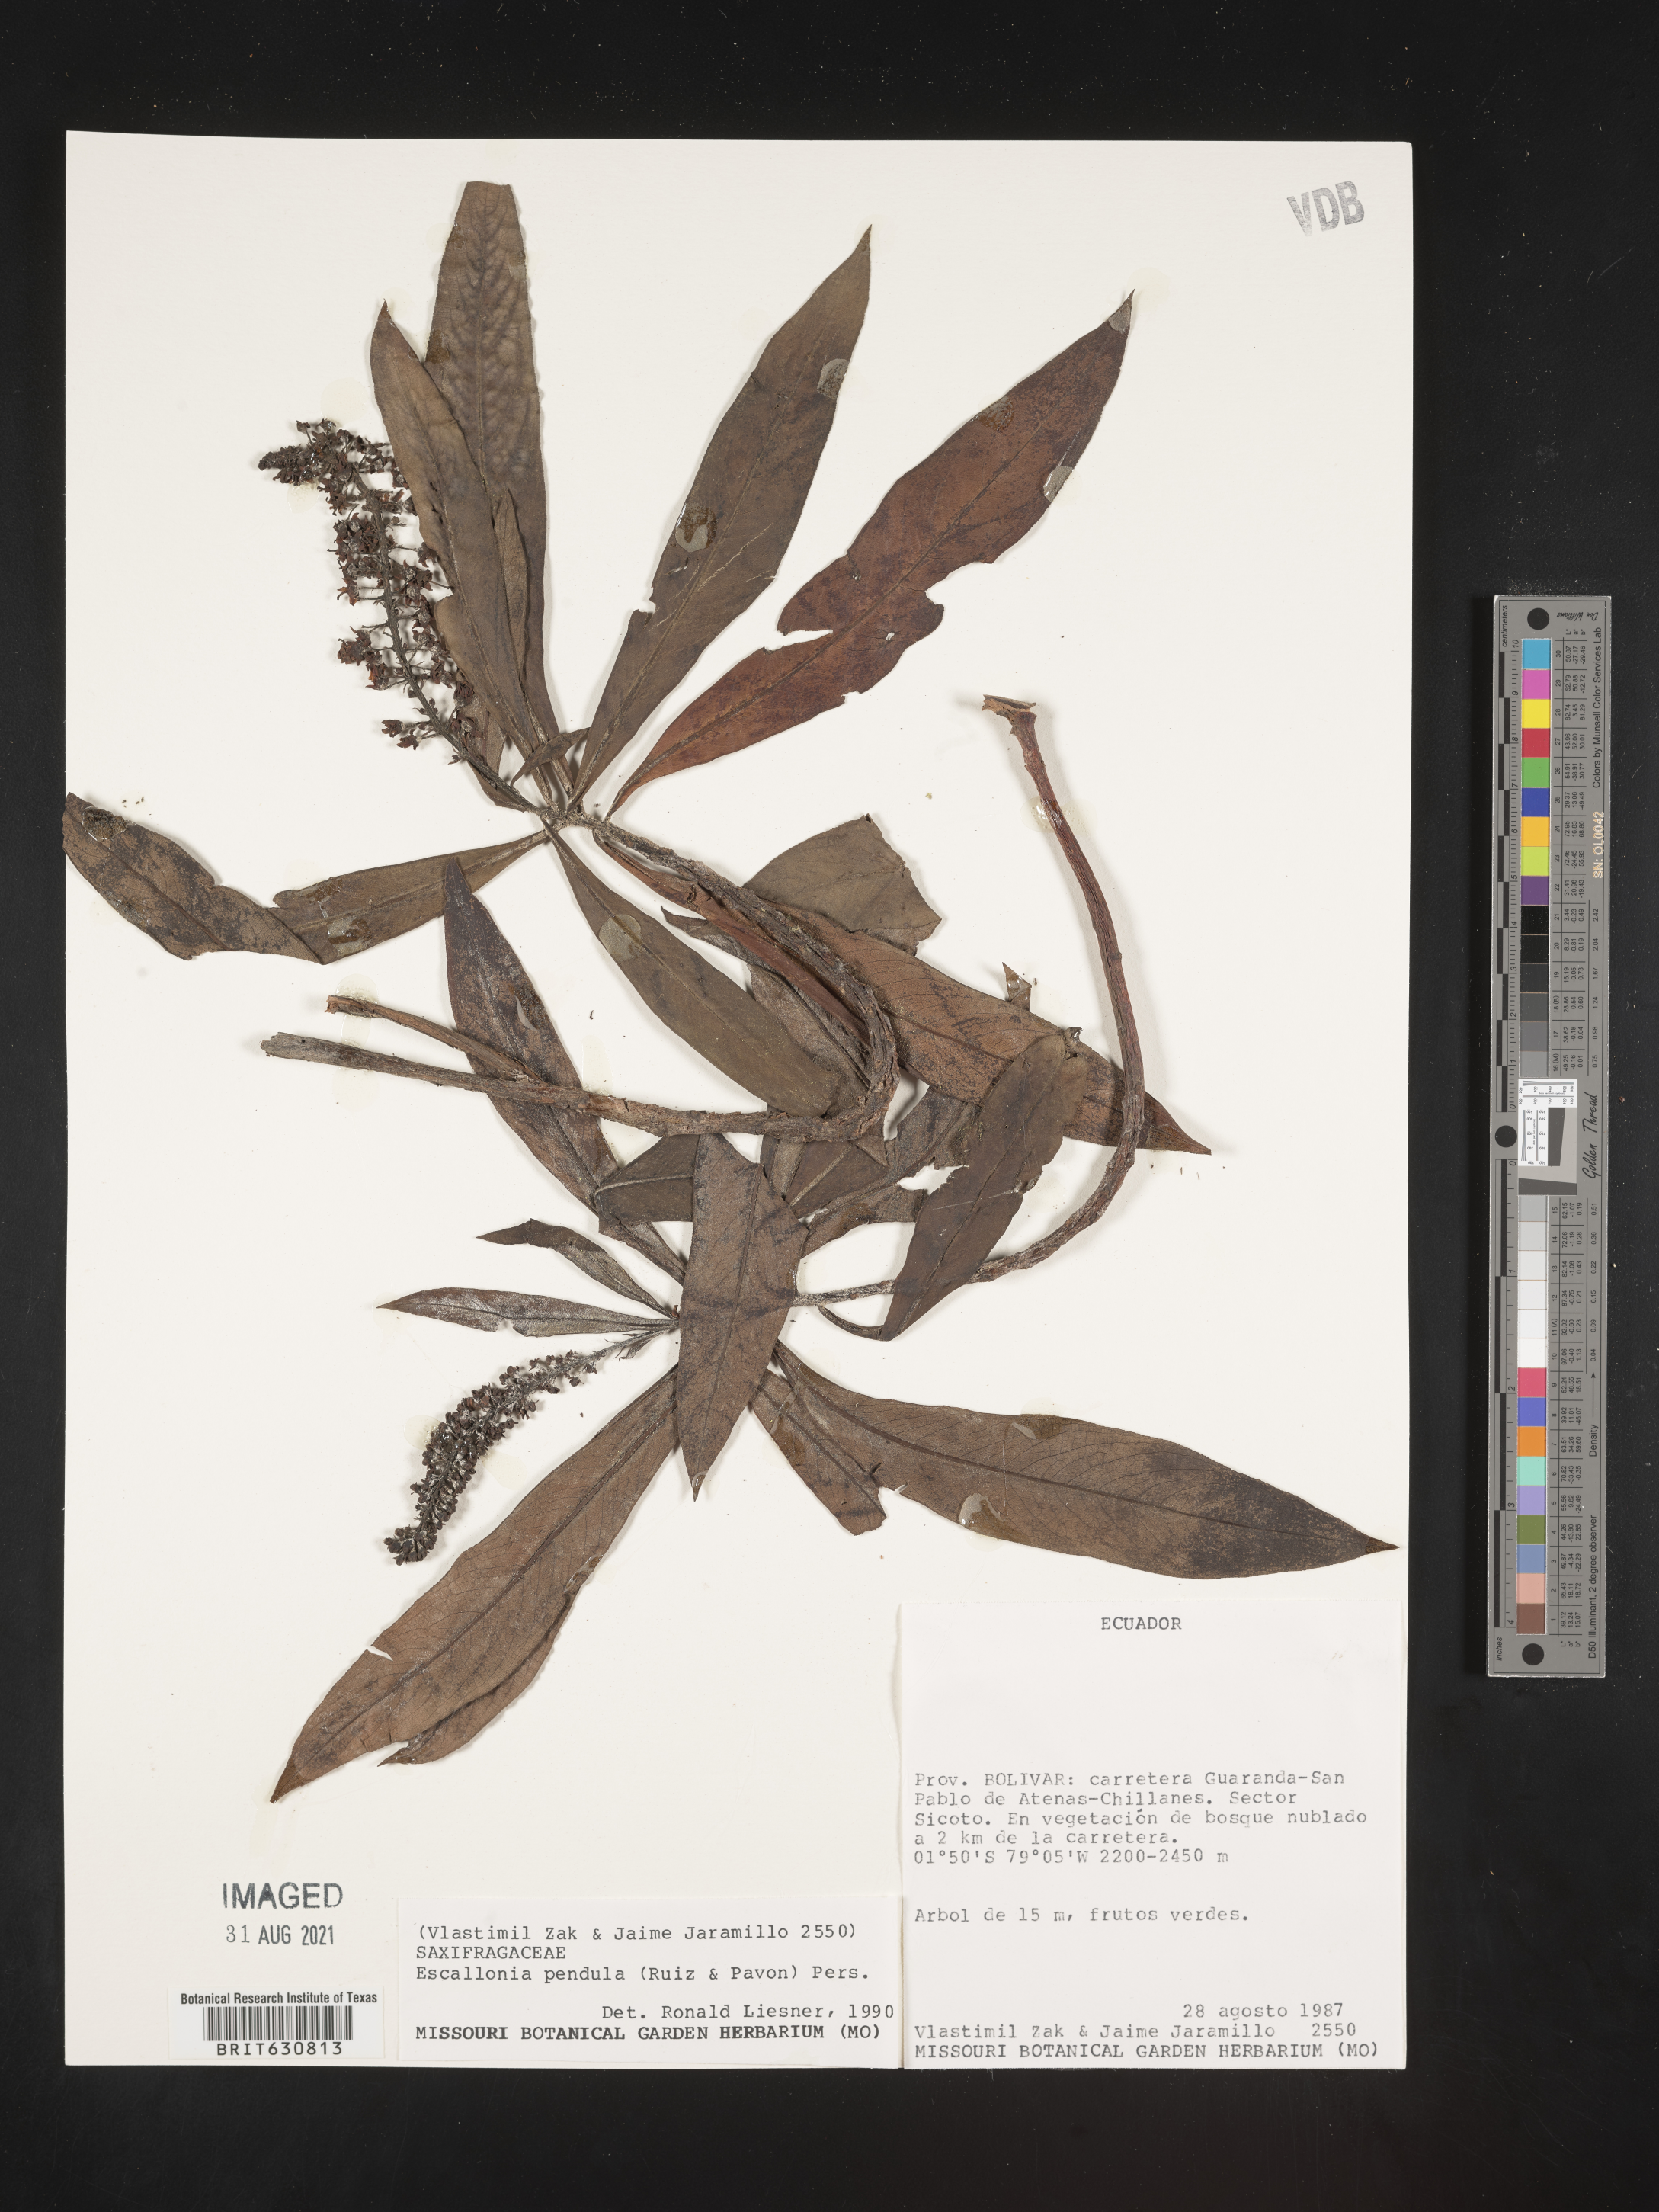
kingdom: Plantae
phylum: Tracheophyta
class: Magnoliopsida
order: Escalloniales
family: Escalloniaceae
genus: Escallonia
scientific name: Escallonia
